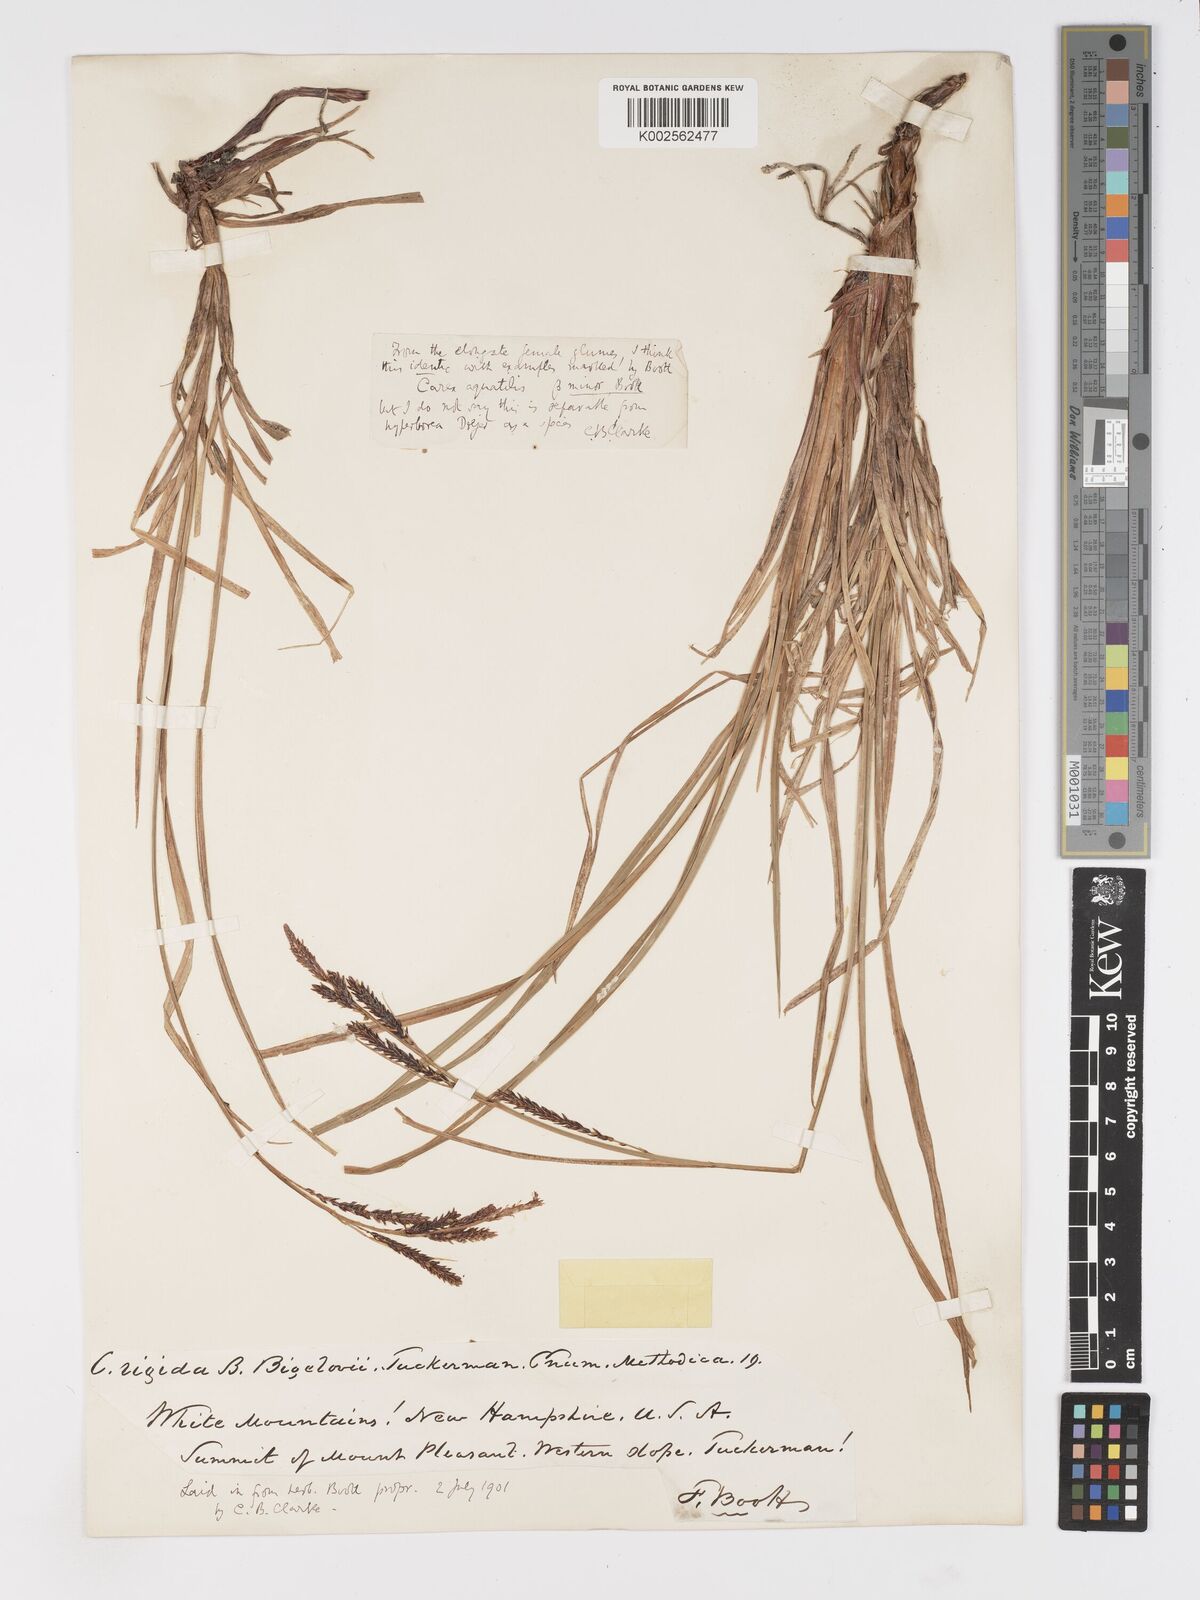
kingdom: Plantae
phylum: Tracheophyta
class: Liliopsida
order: Poales
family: Cyperaceae
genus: Carex
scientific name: Carex
